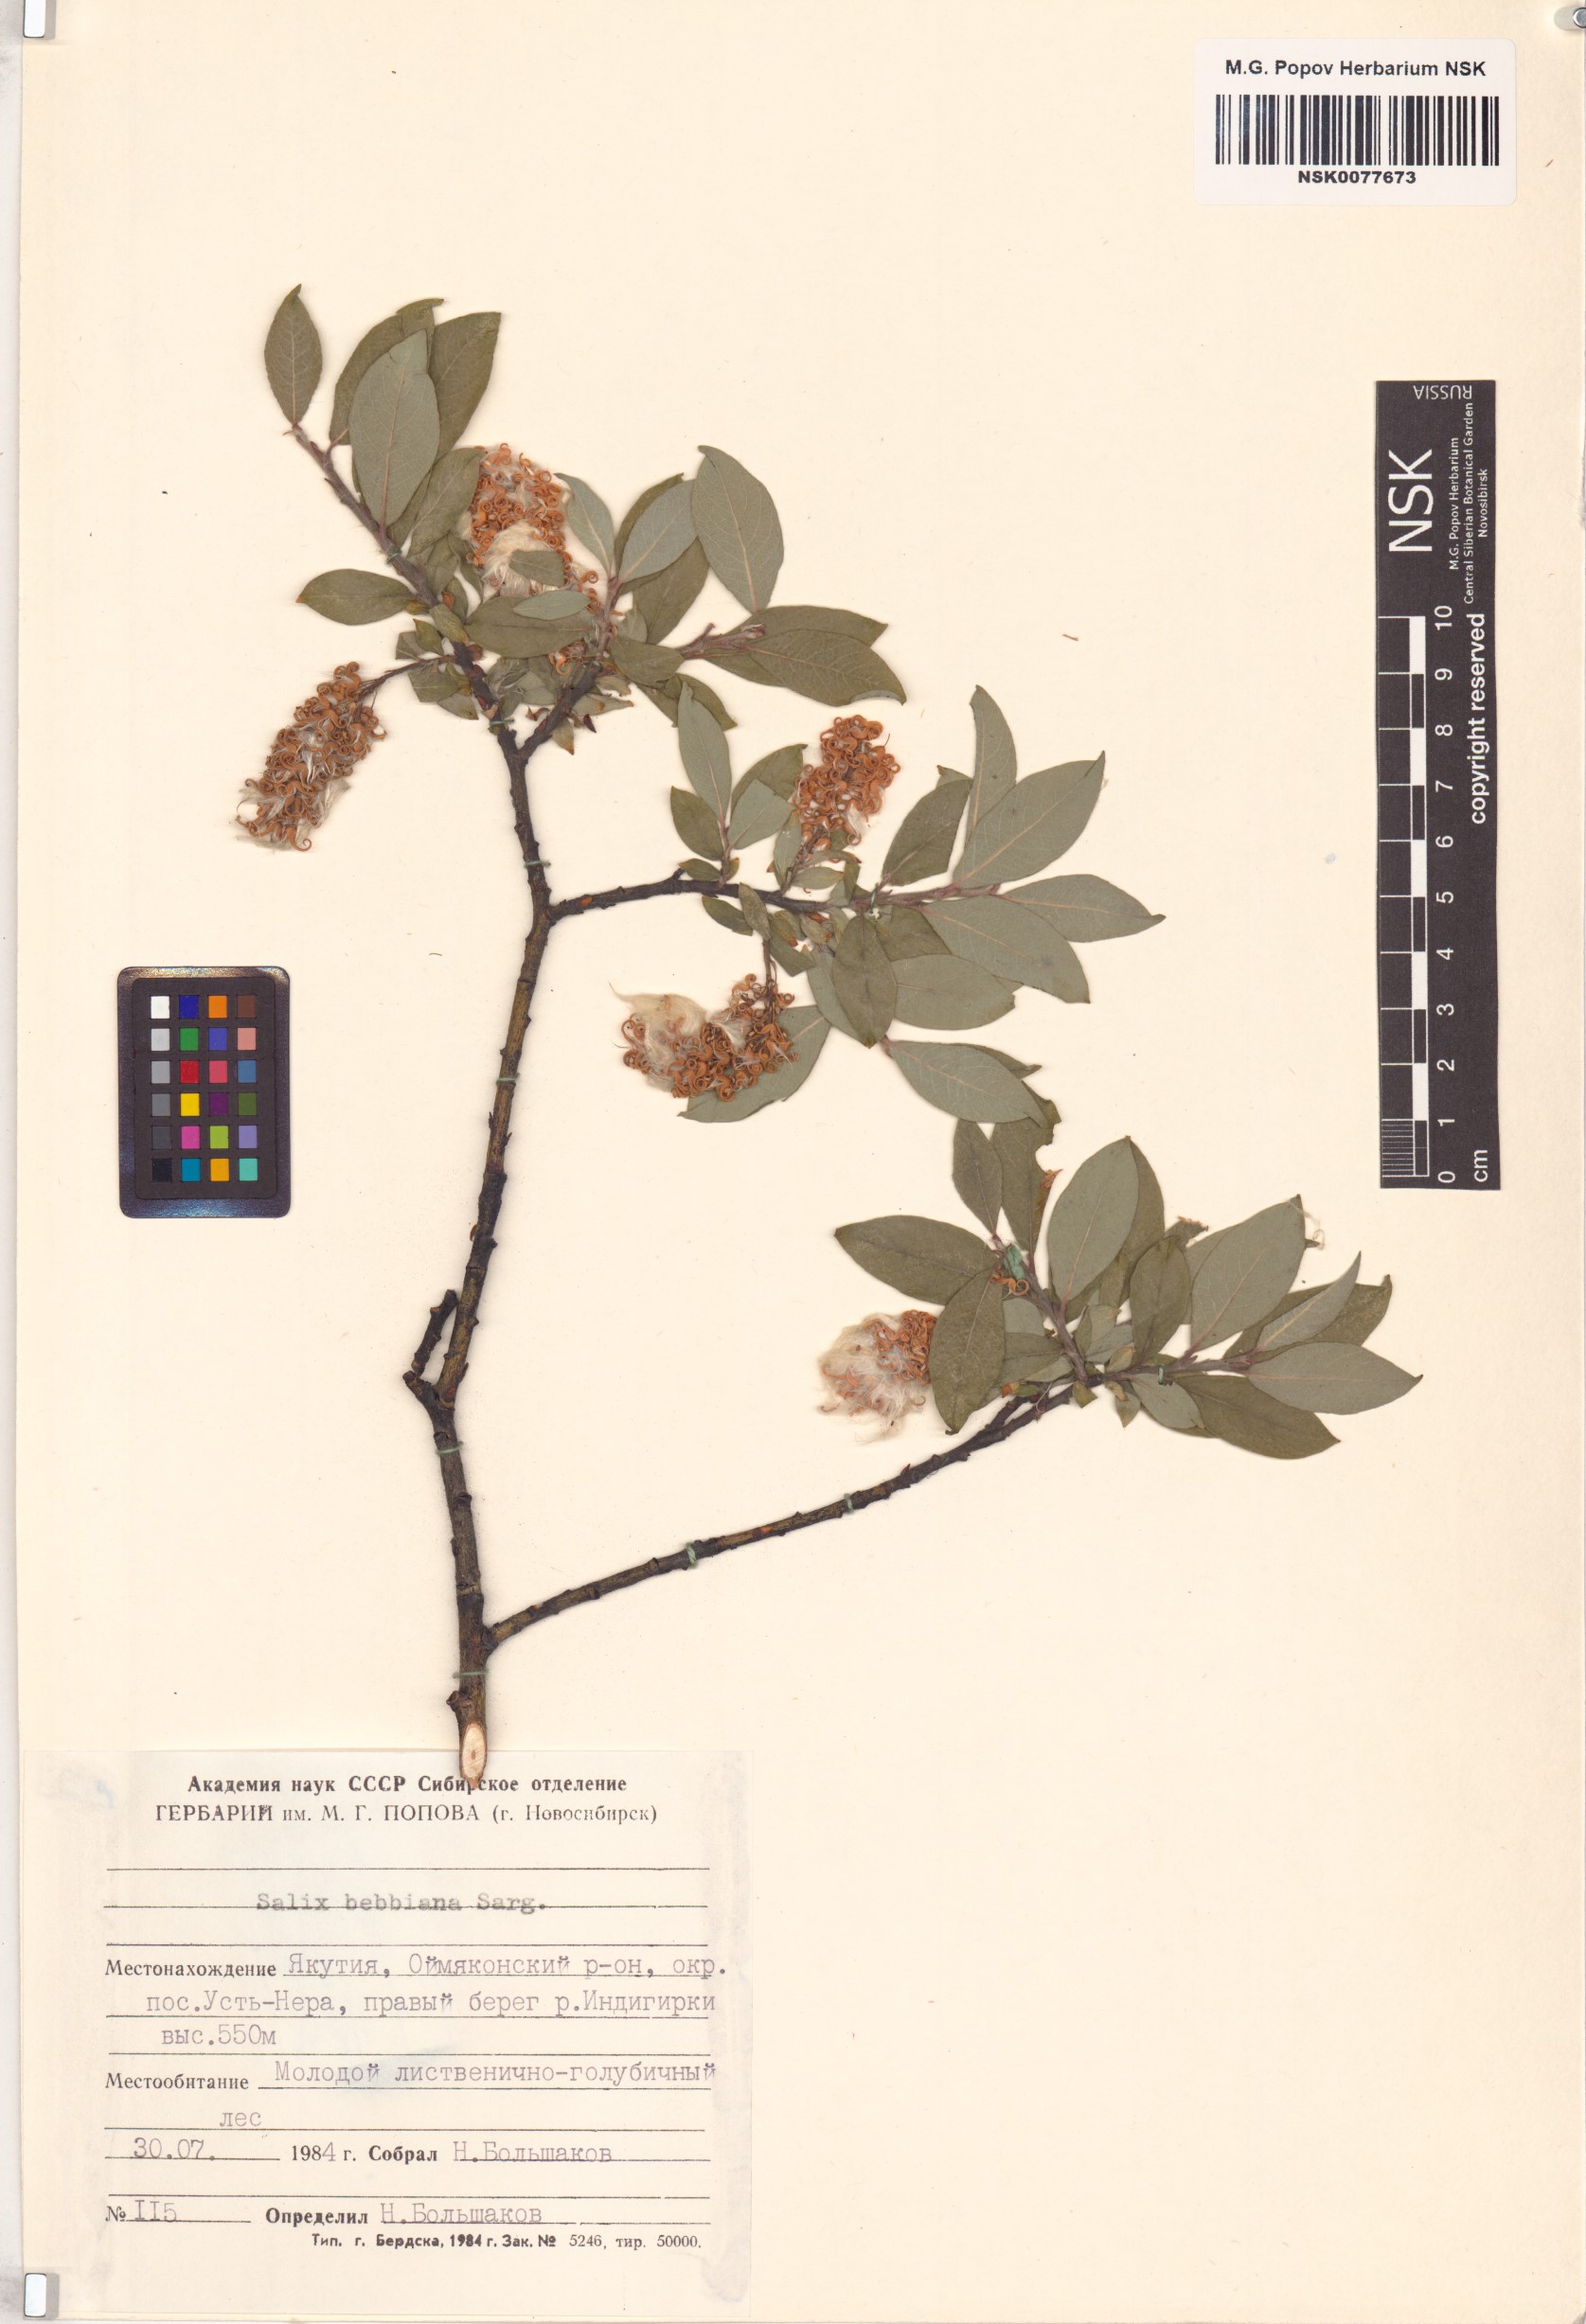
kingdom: Plantae
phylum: Tracheophyta
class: Magnoliopsida
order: Malpighiales
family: Salicaceae
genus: Salix
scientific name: Salix bebbiana
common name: Bebb's willow
